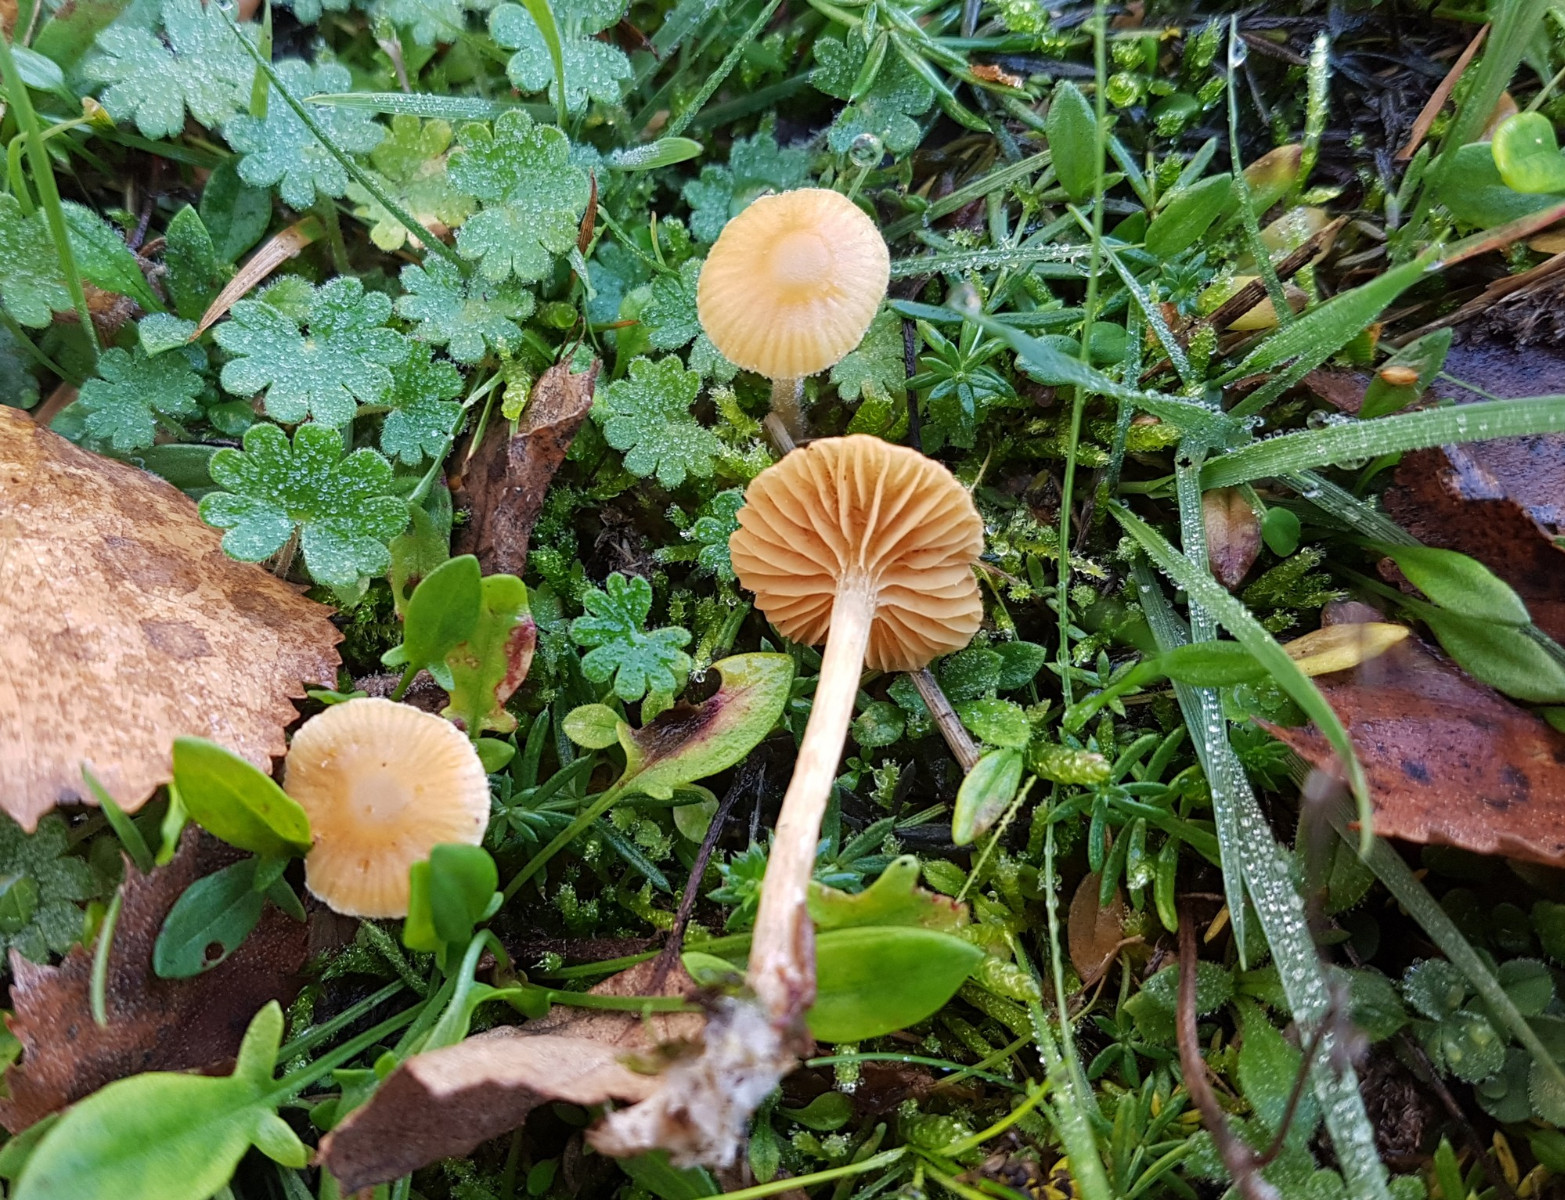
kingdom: Fungi
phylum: Basidiomycota
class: Agaricomycetes
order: Agaricales
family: Hymenogastraceae
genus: Galerina
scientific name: Galerina graminea
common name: plæne-hjelmhat
